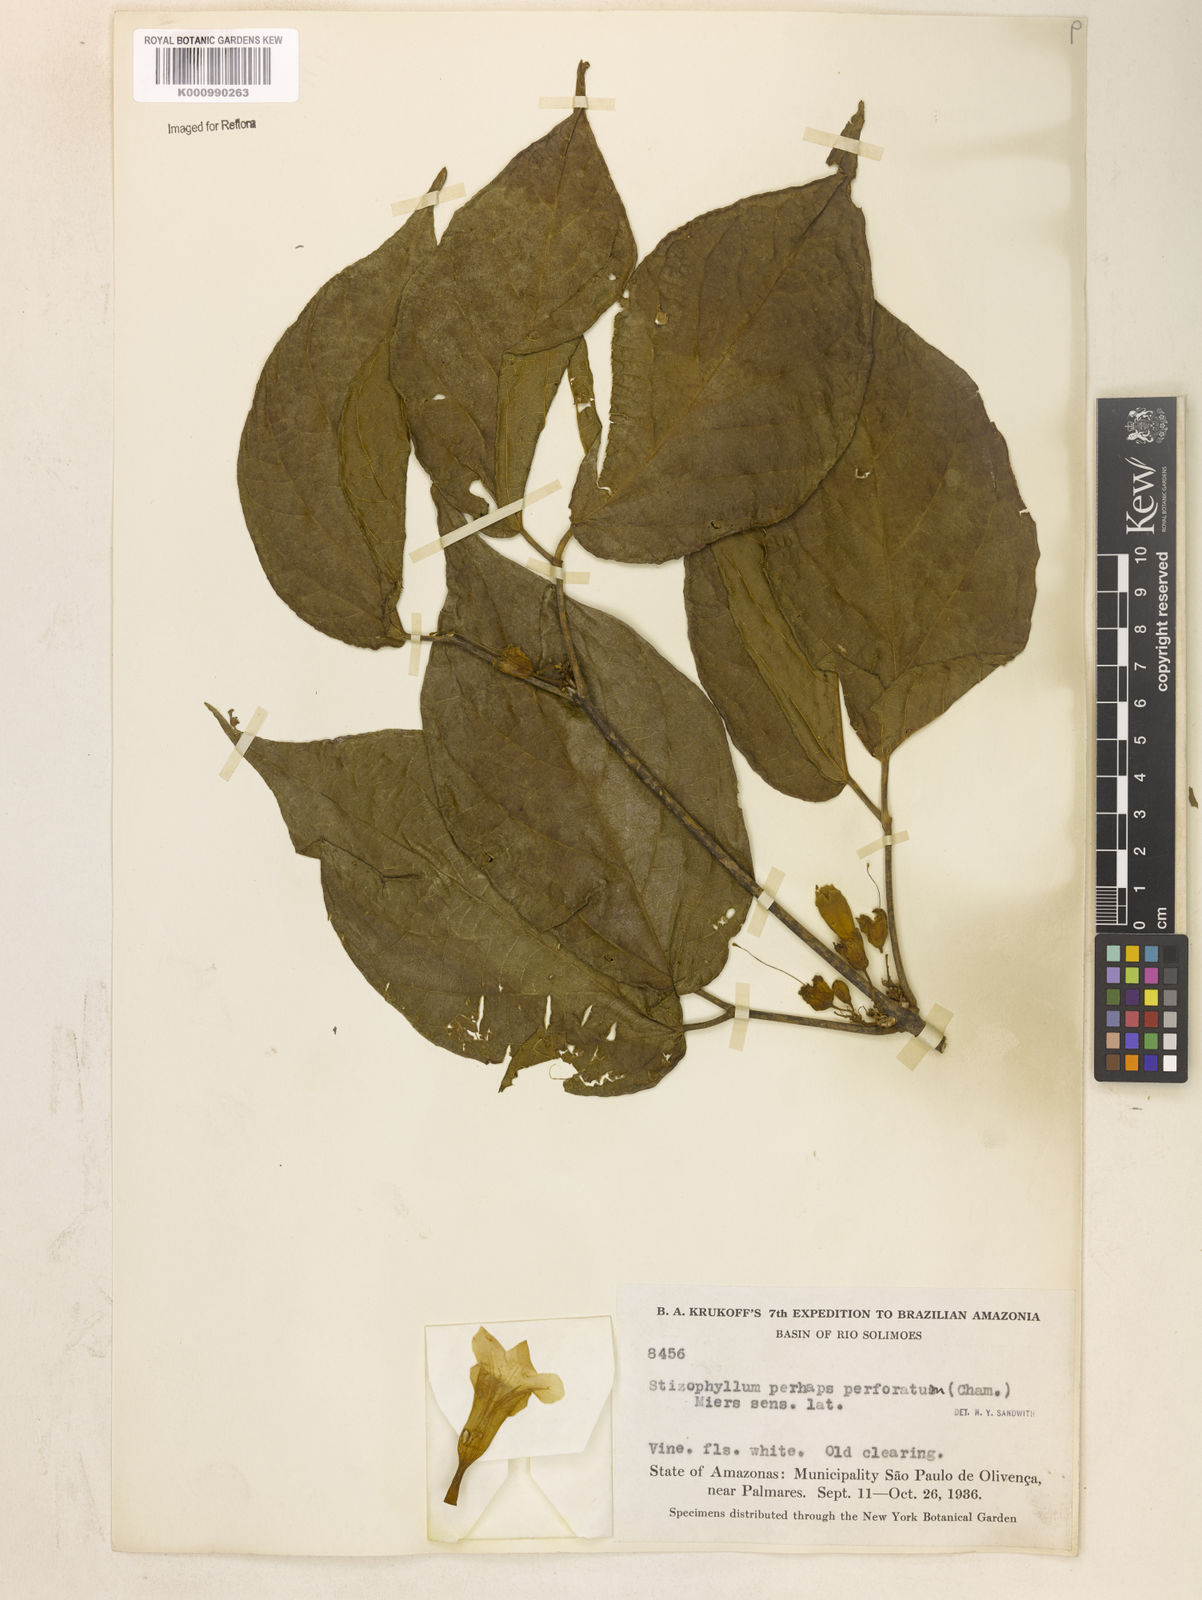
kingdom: Plantae
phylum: Tracheophyta
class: Magnoliopsida
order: Lamiales
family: Bignoniaceae
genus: Stizophyllum
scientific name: Stizophyllum riparium
